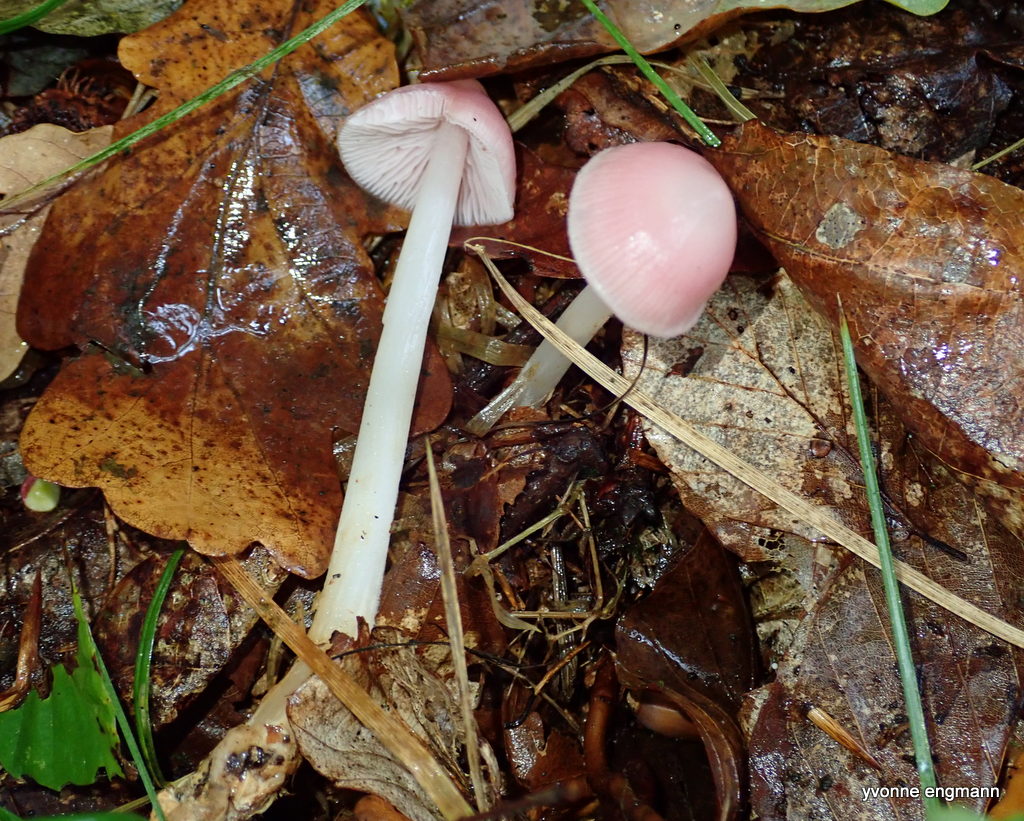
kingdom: Fungi
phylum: Basidiomycota
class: Agaricomycetes
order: Agaricales
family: Mycenaceae
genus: Mycena
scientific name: Mycena rosea
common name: rosa huesvamp
